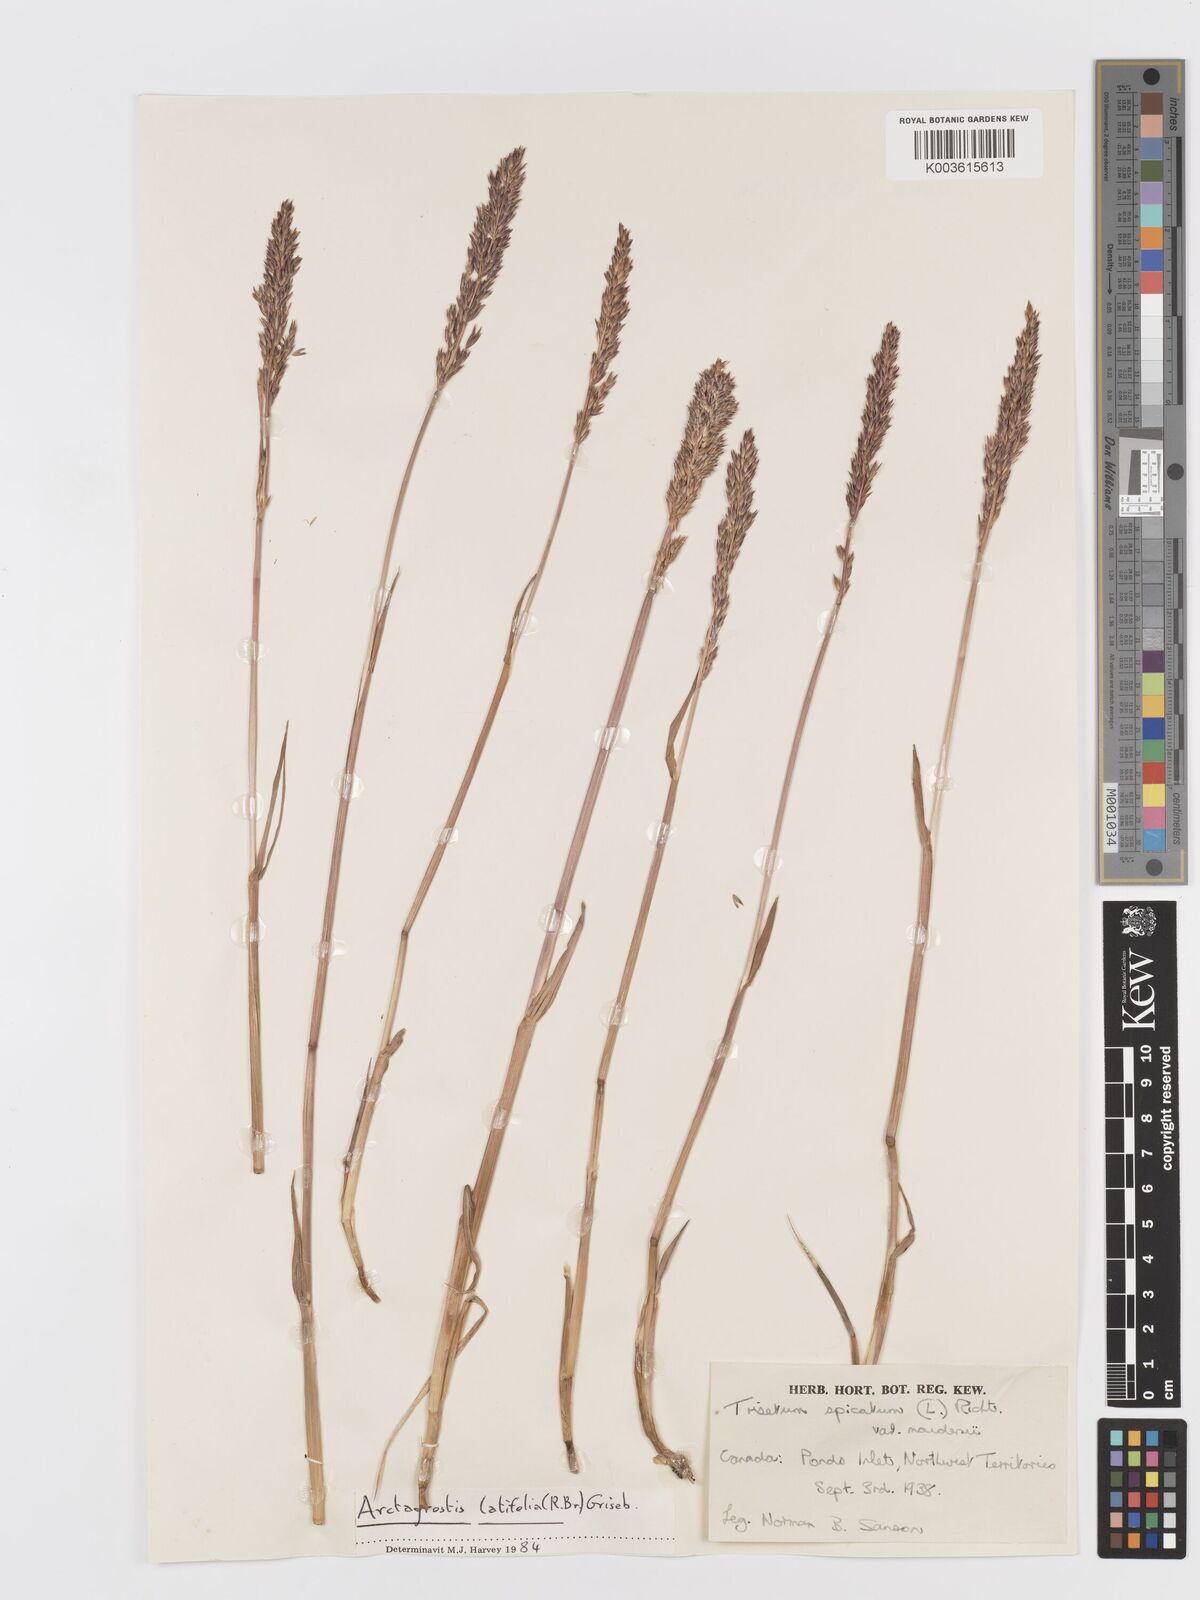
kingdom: Plantae
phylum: Tracheophyta
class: Liliopsida
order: Poales
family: Poaceae
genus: Koeleria
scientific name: Koeleria spicata
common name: Mountain trisetum
